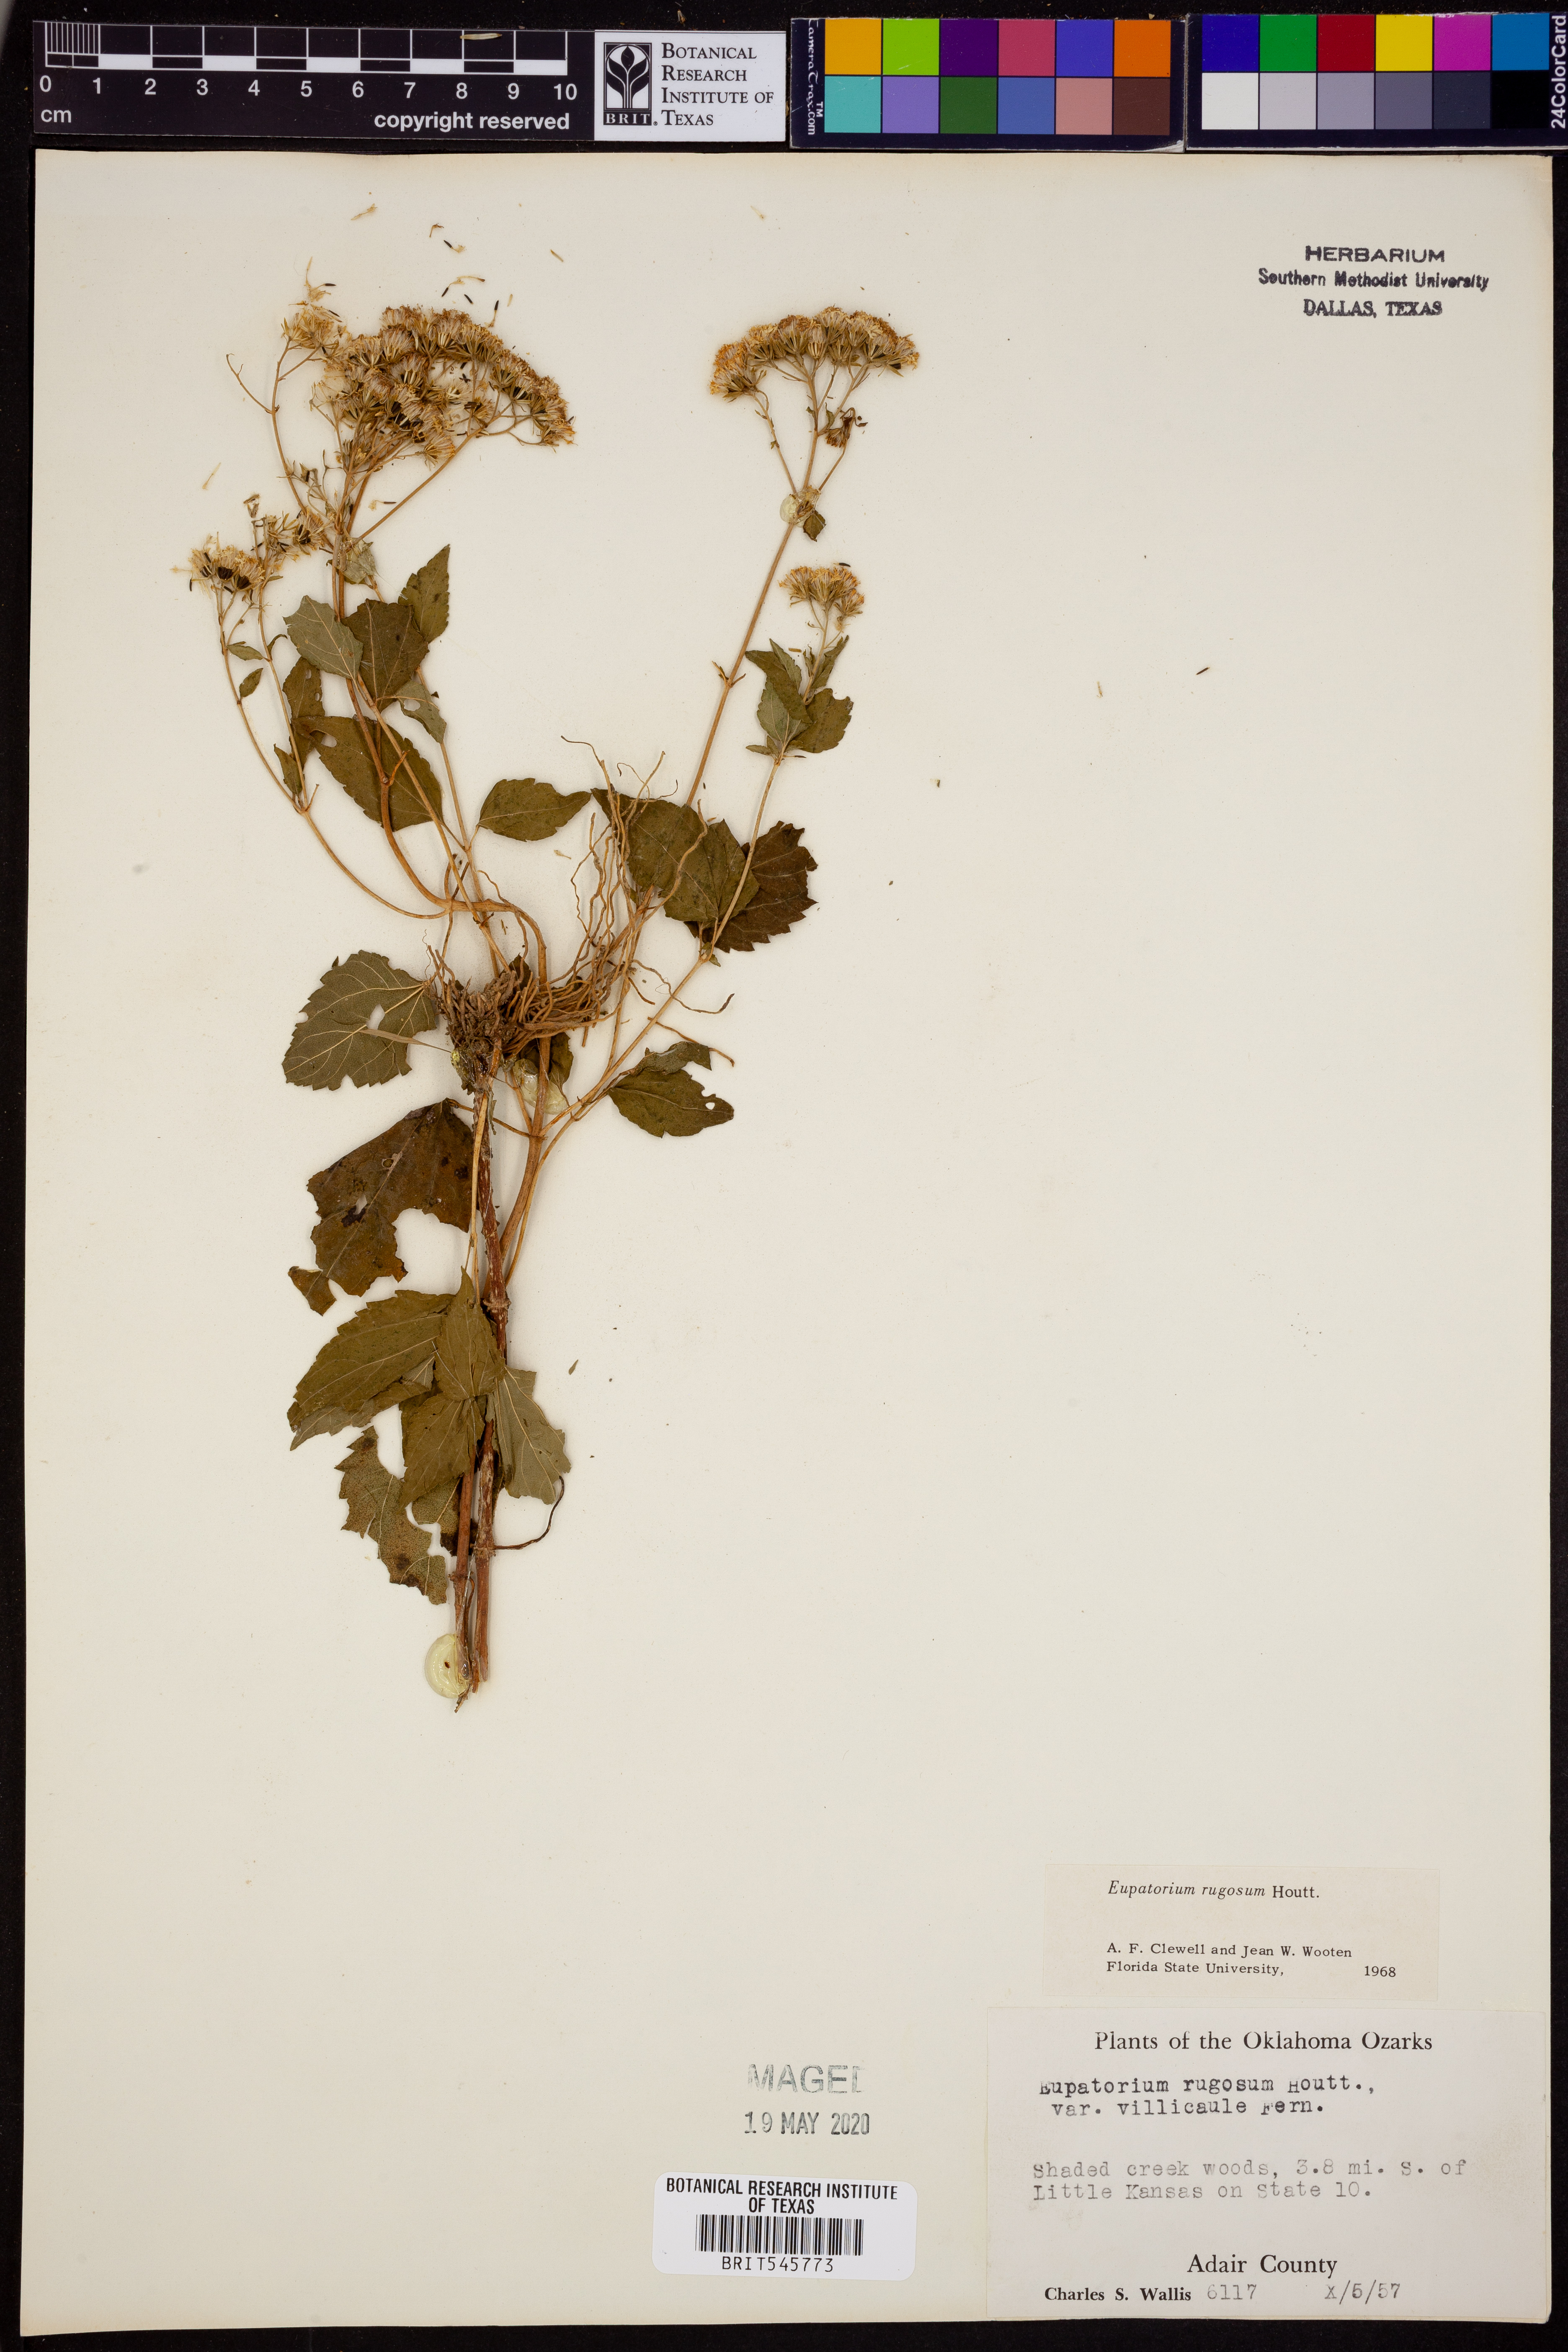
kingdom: Plantae
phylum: Tracheophyta
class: Magnoliopsida
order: Asterales
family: Asteraceae
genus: Cronquistianthus
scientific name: Cronquistianthus bulliferus
